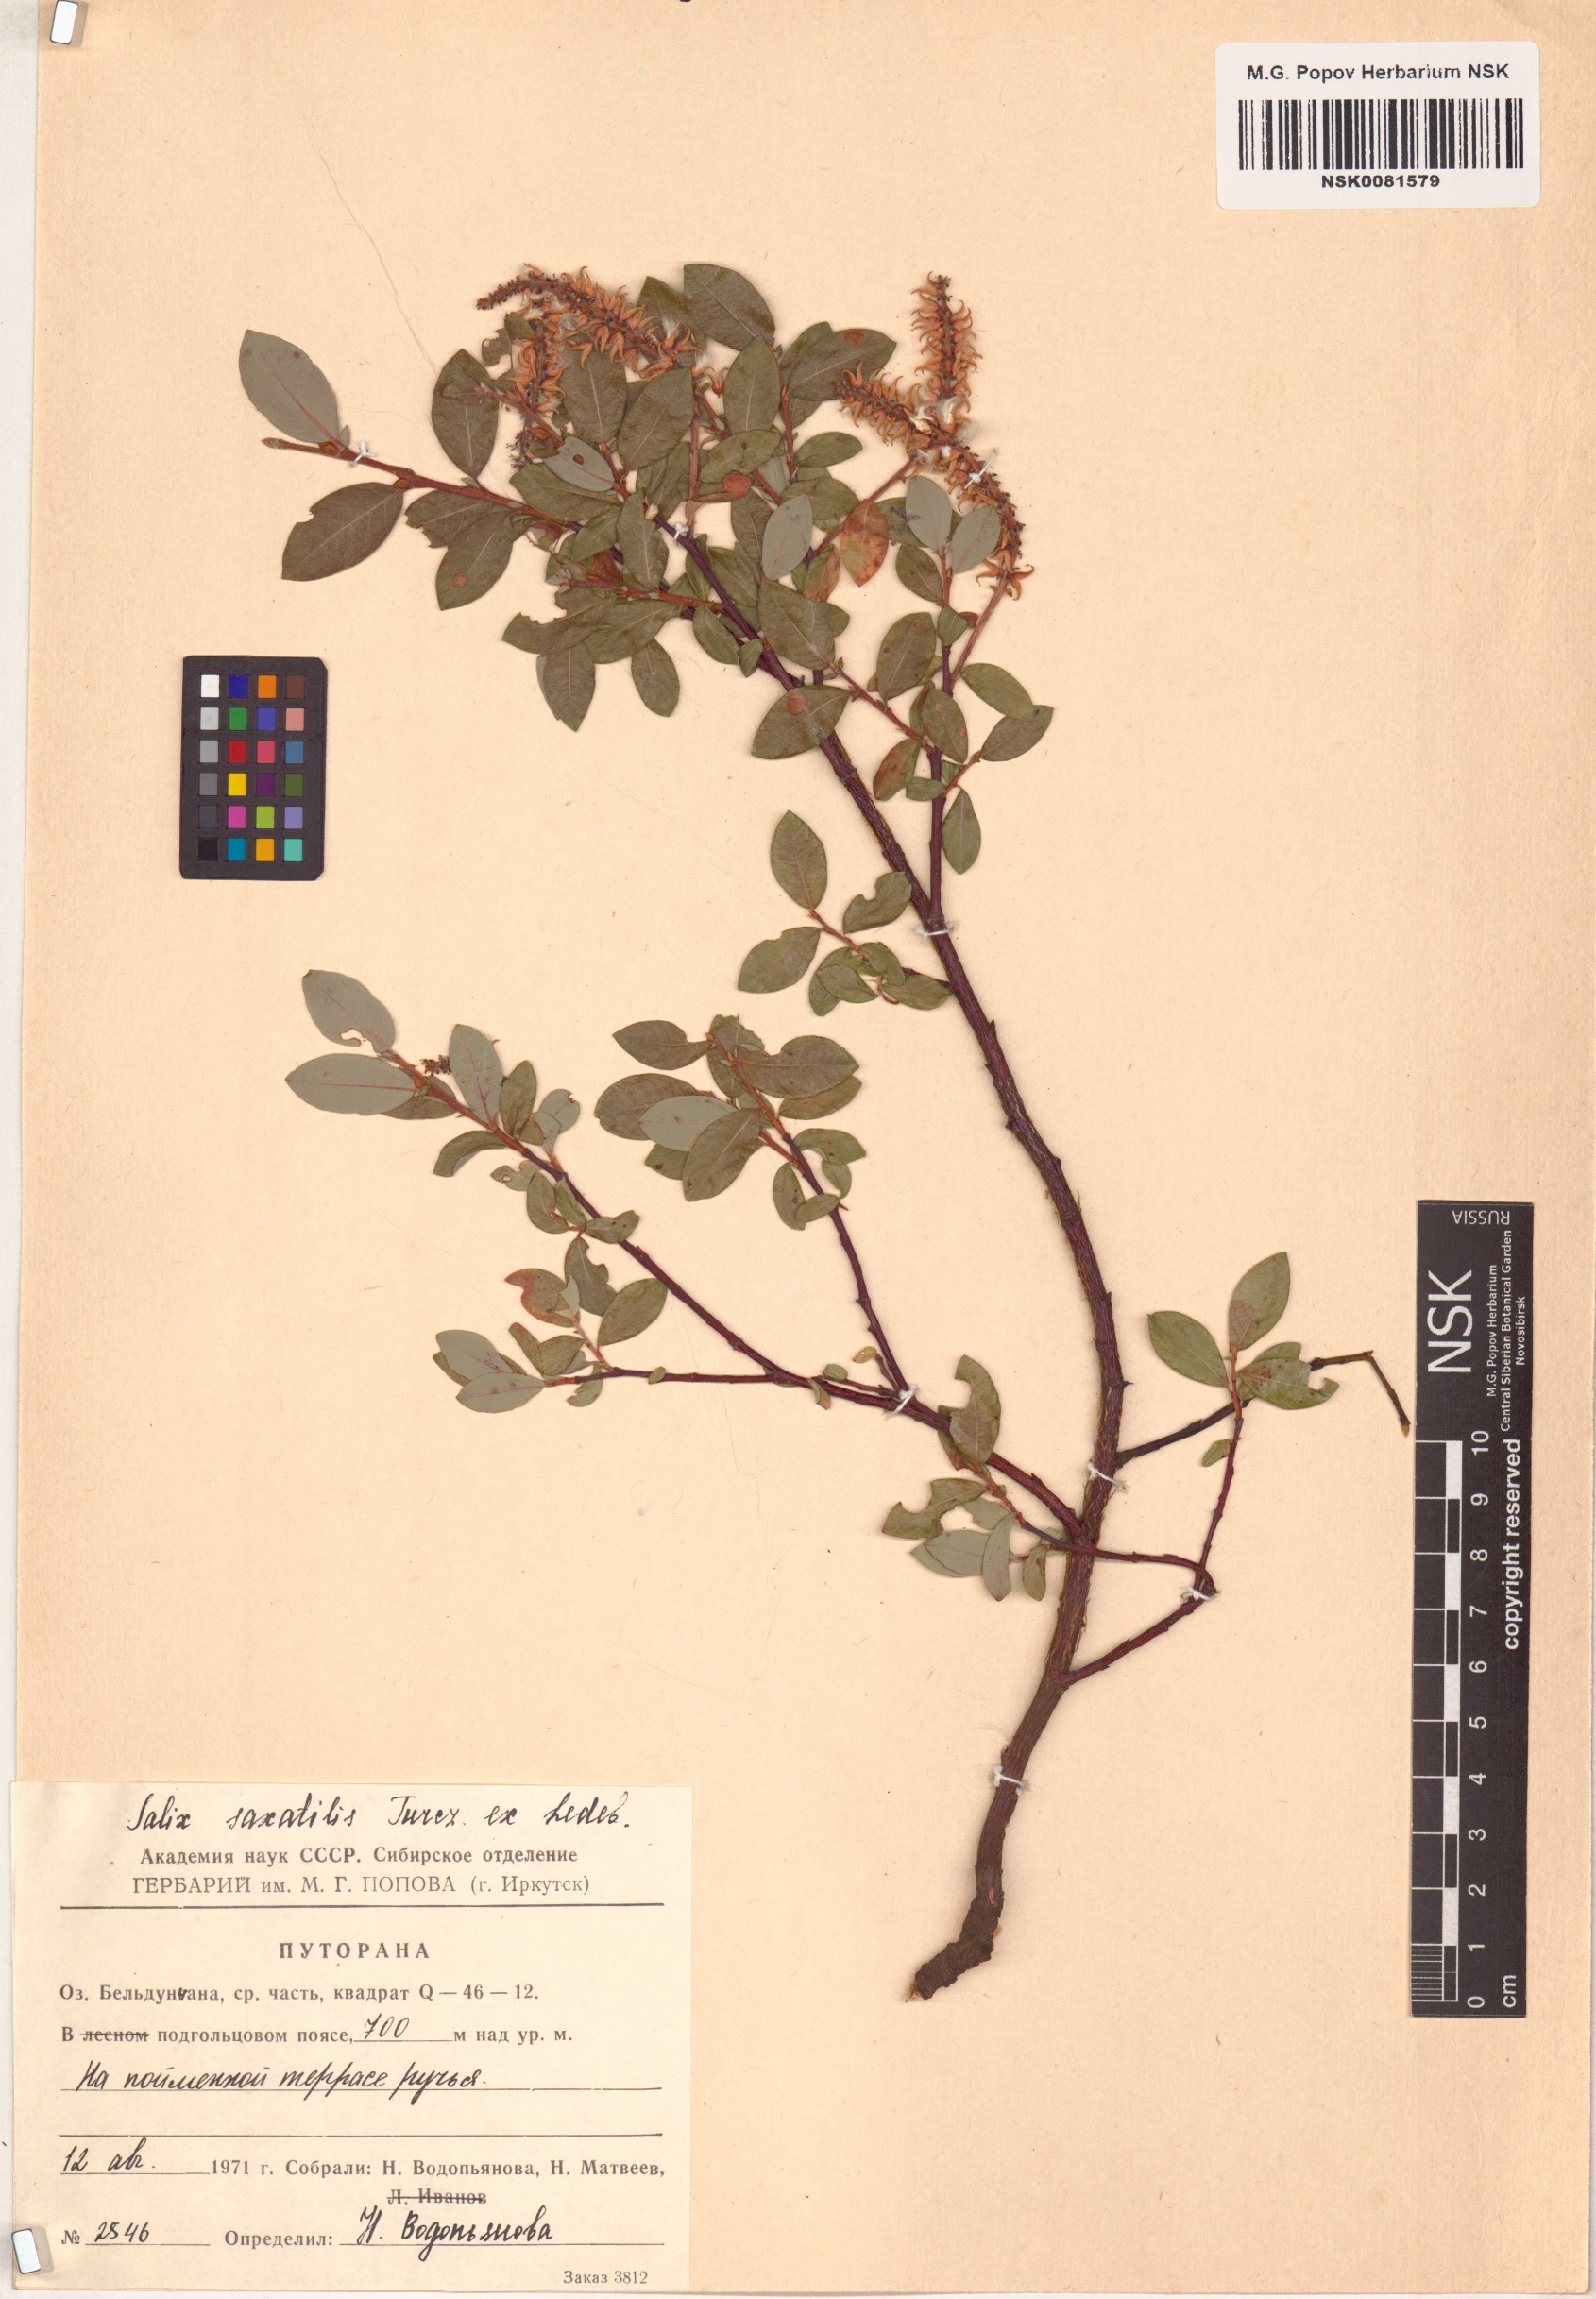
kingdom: Plantae
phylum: Tracheophyta
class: Magnoliopsida
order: Malpighiales
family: Salicaceae
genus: Salix
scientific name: Salix saxatilis
